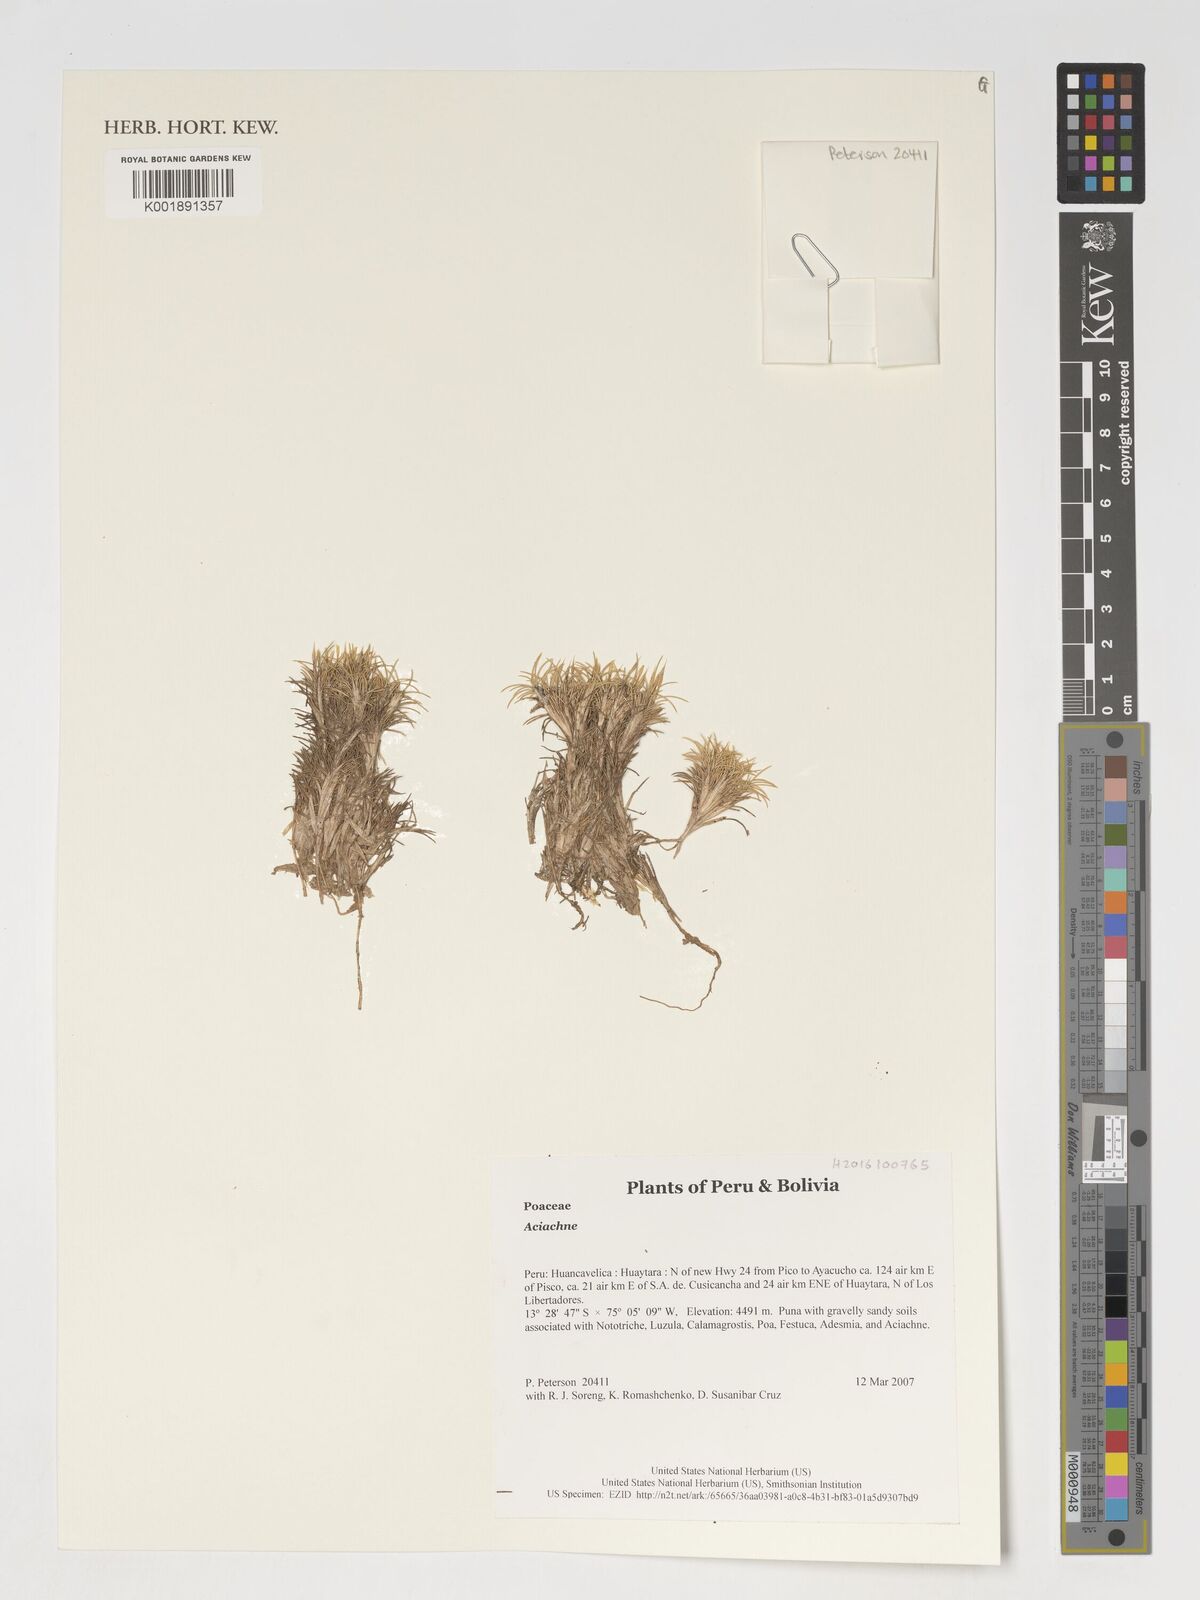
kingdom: Plantae
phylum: Tracheophyta
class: Liliopsida
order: Poales
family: Poaceae
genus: Aciachne
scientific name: Aciachne
